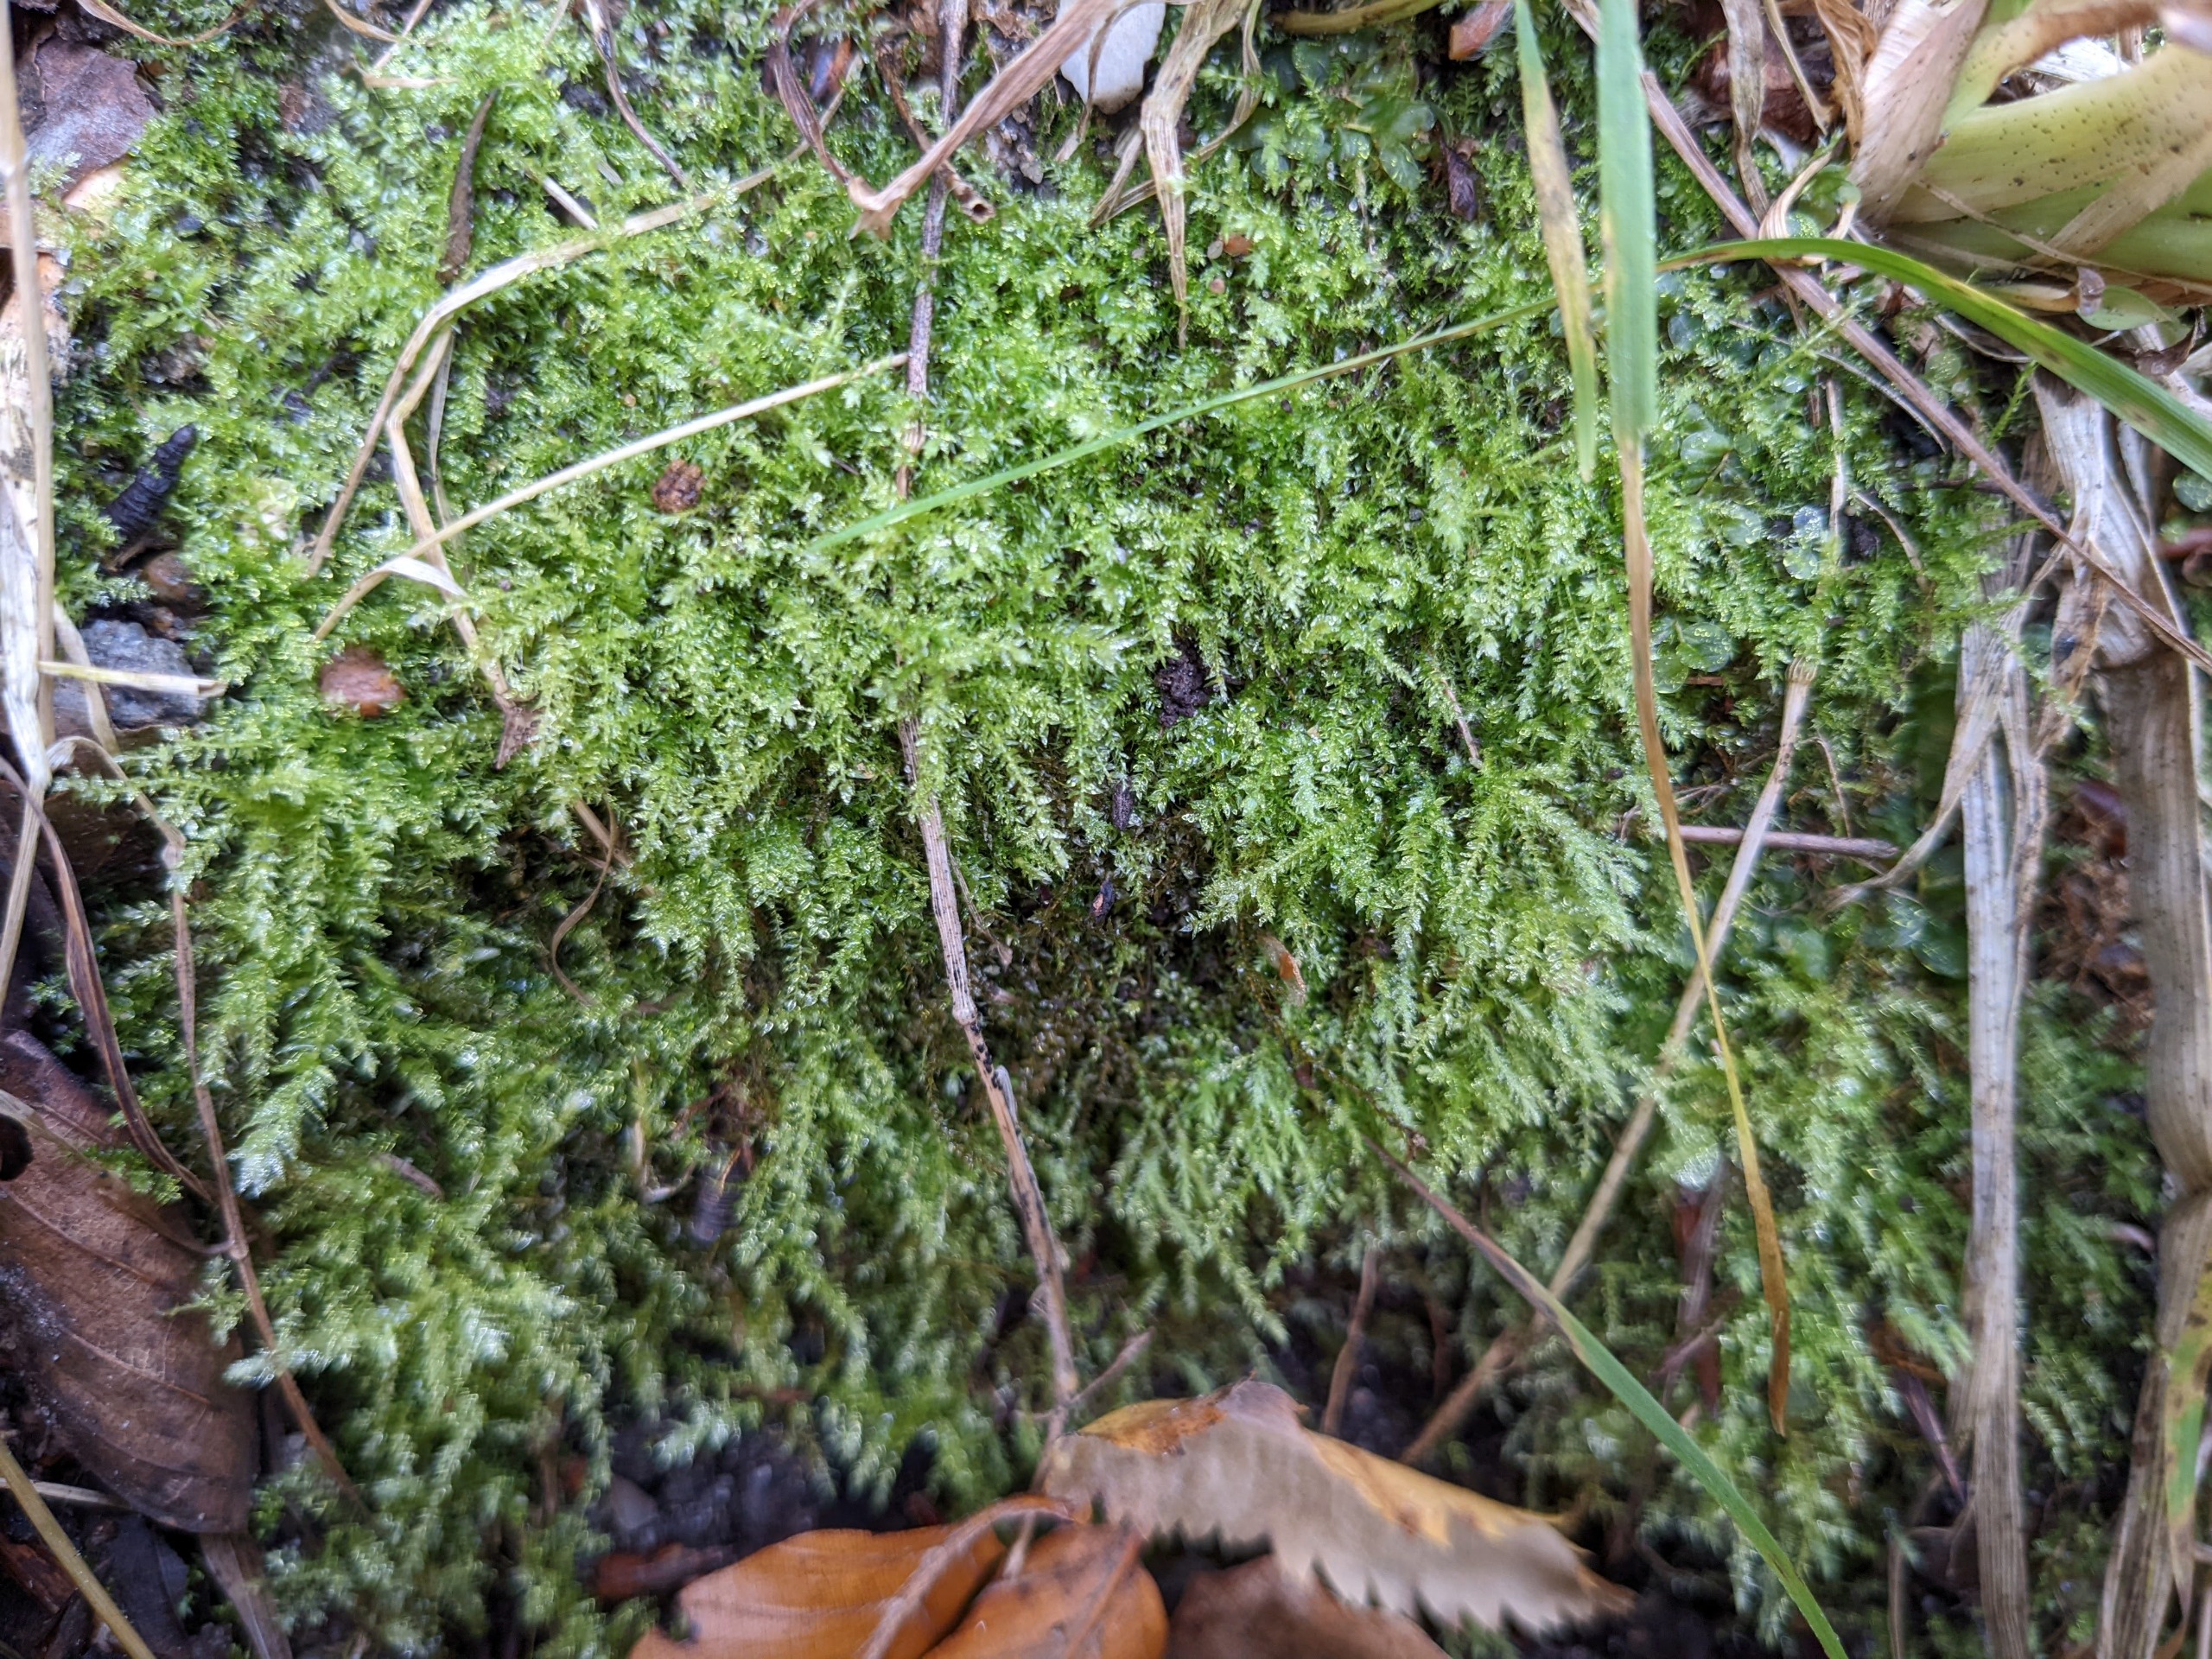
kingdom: Plantae
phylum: Bryophyta
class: Bryopsida
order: Hypnales
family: Brachytheciaceae
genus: Oxyrrhynchium
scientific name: Oxyrrhynchium hians
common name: Ler-vortetand
